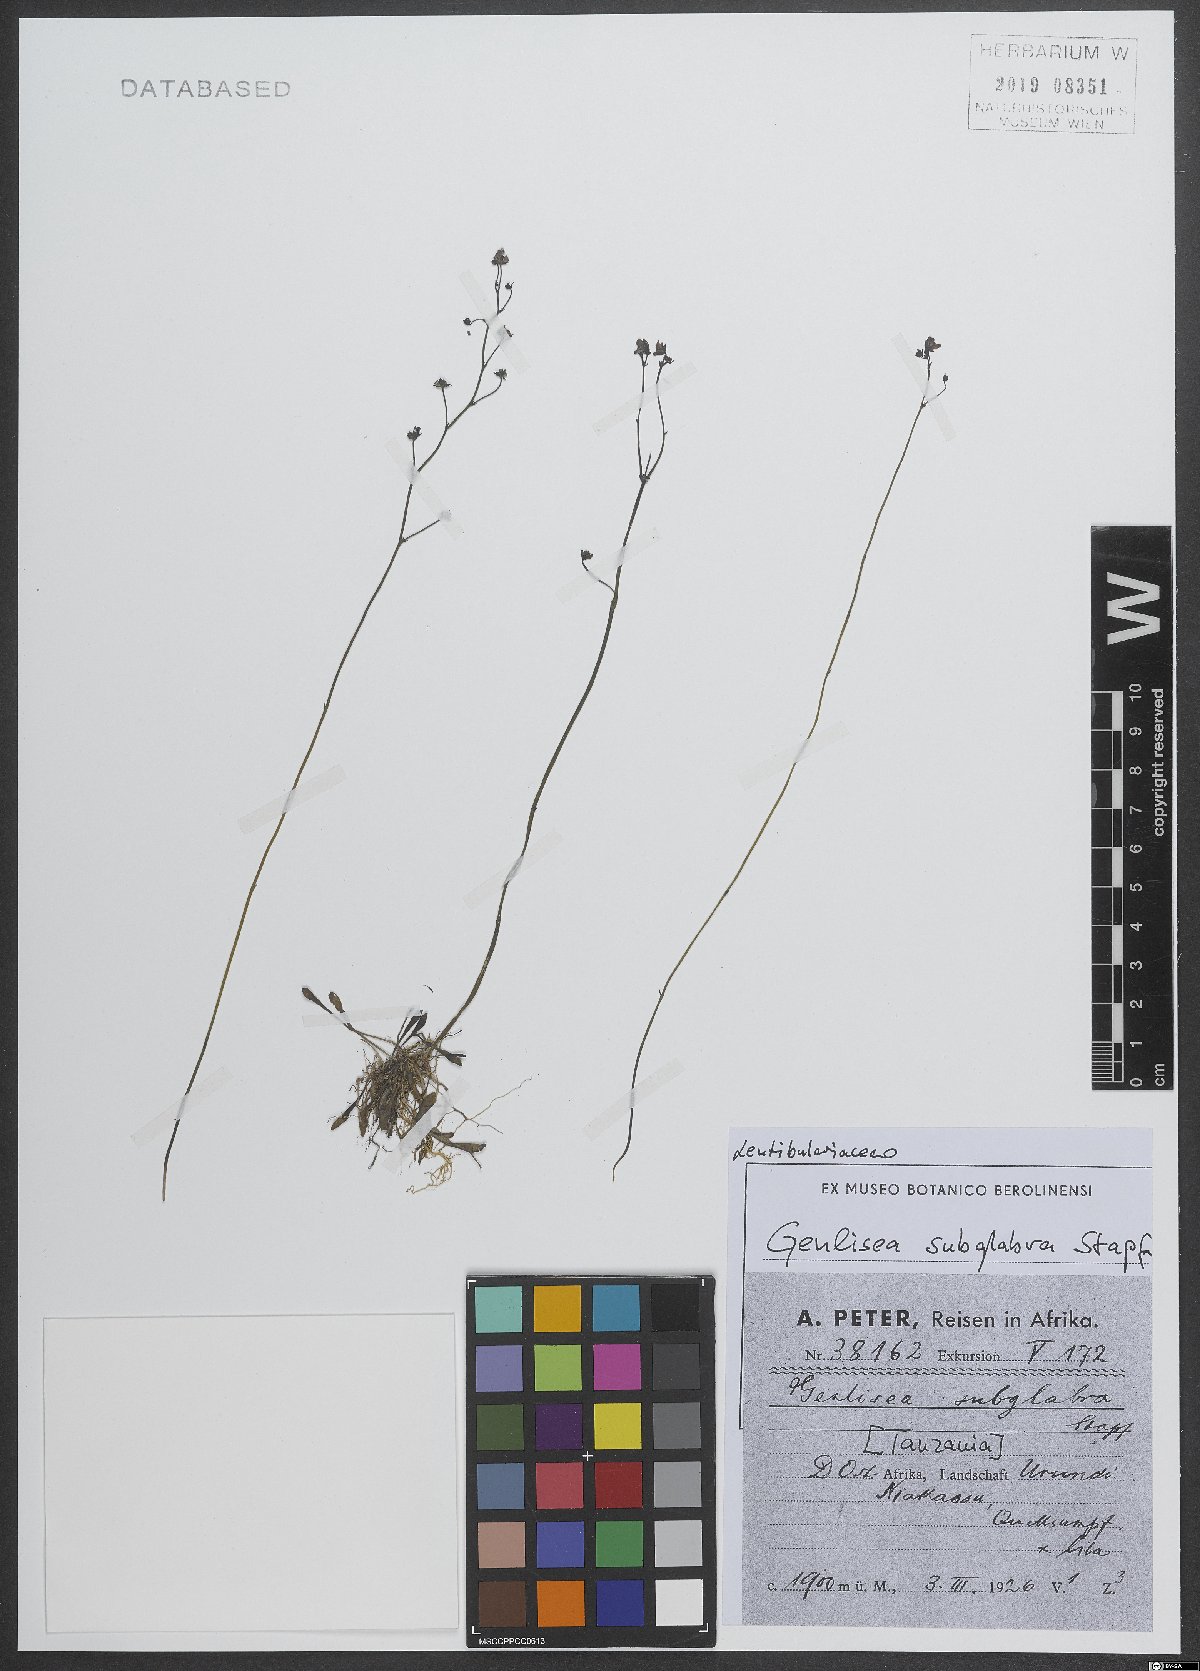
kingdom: Plantae
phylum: Tracheophyta
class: Magnoliopsida
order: Lamiales
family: Lentibulariaceae
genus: Genlisea
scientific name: Genlisea subglabra
